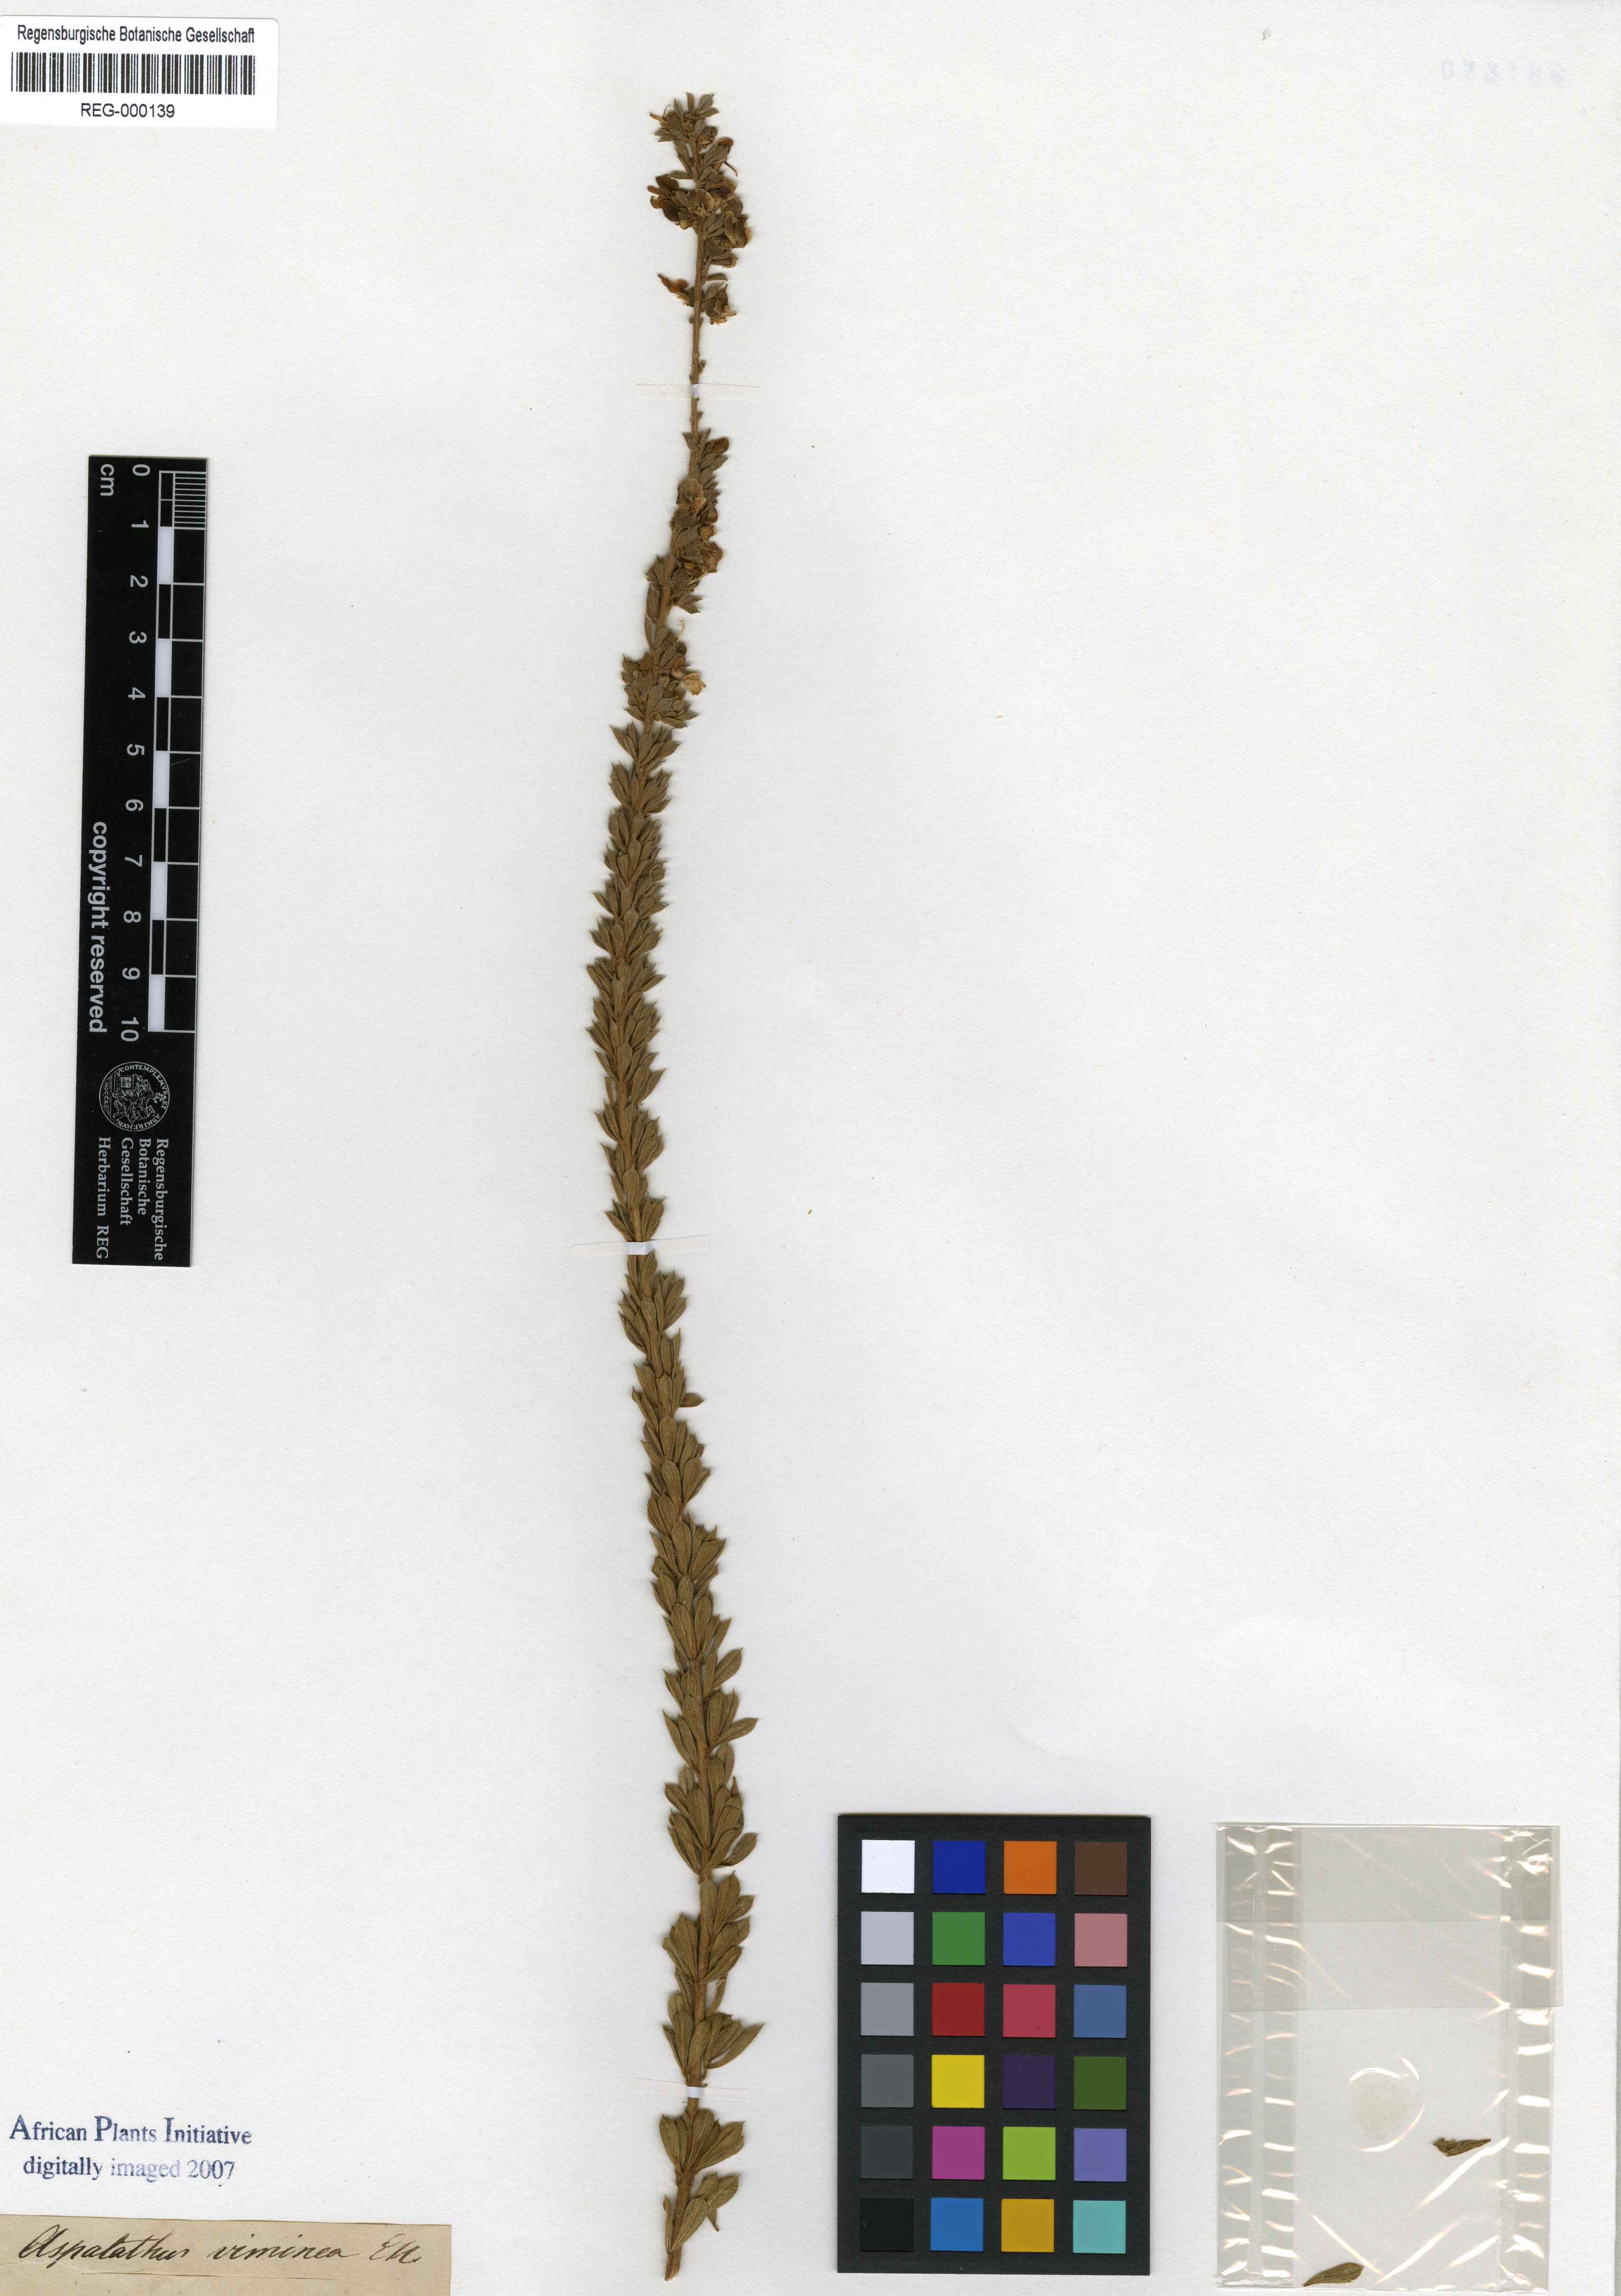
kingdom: Plantae
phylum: Tracheophyta
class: Magnoliopsida
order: Fabales
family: Fabaceae
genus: Lotononis
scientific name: Lotononis viminea
